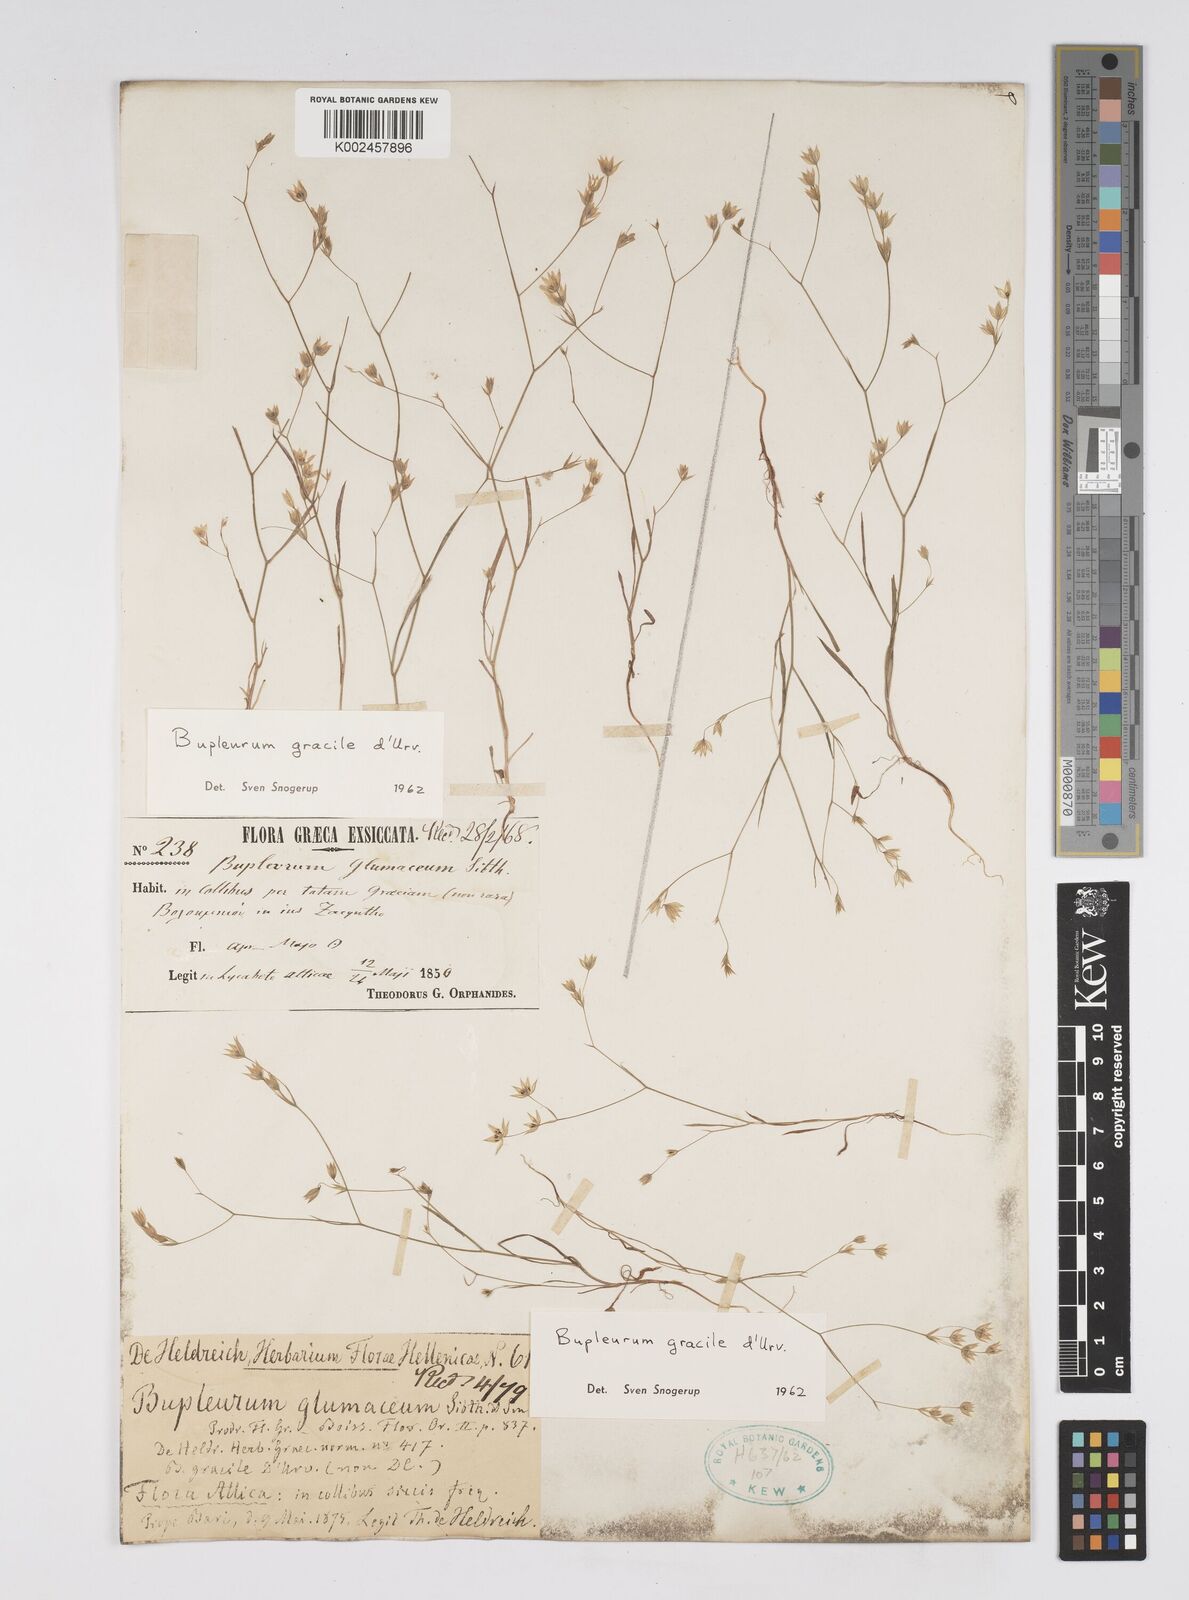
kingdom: Plantae
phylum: Tracheophyta
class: Magnoliopsida
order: Apiales
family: Apiaceae
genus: Bupleurum
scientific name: Bupleurum gracile
